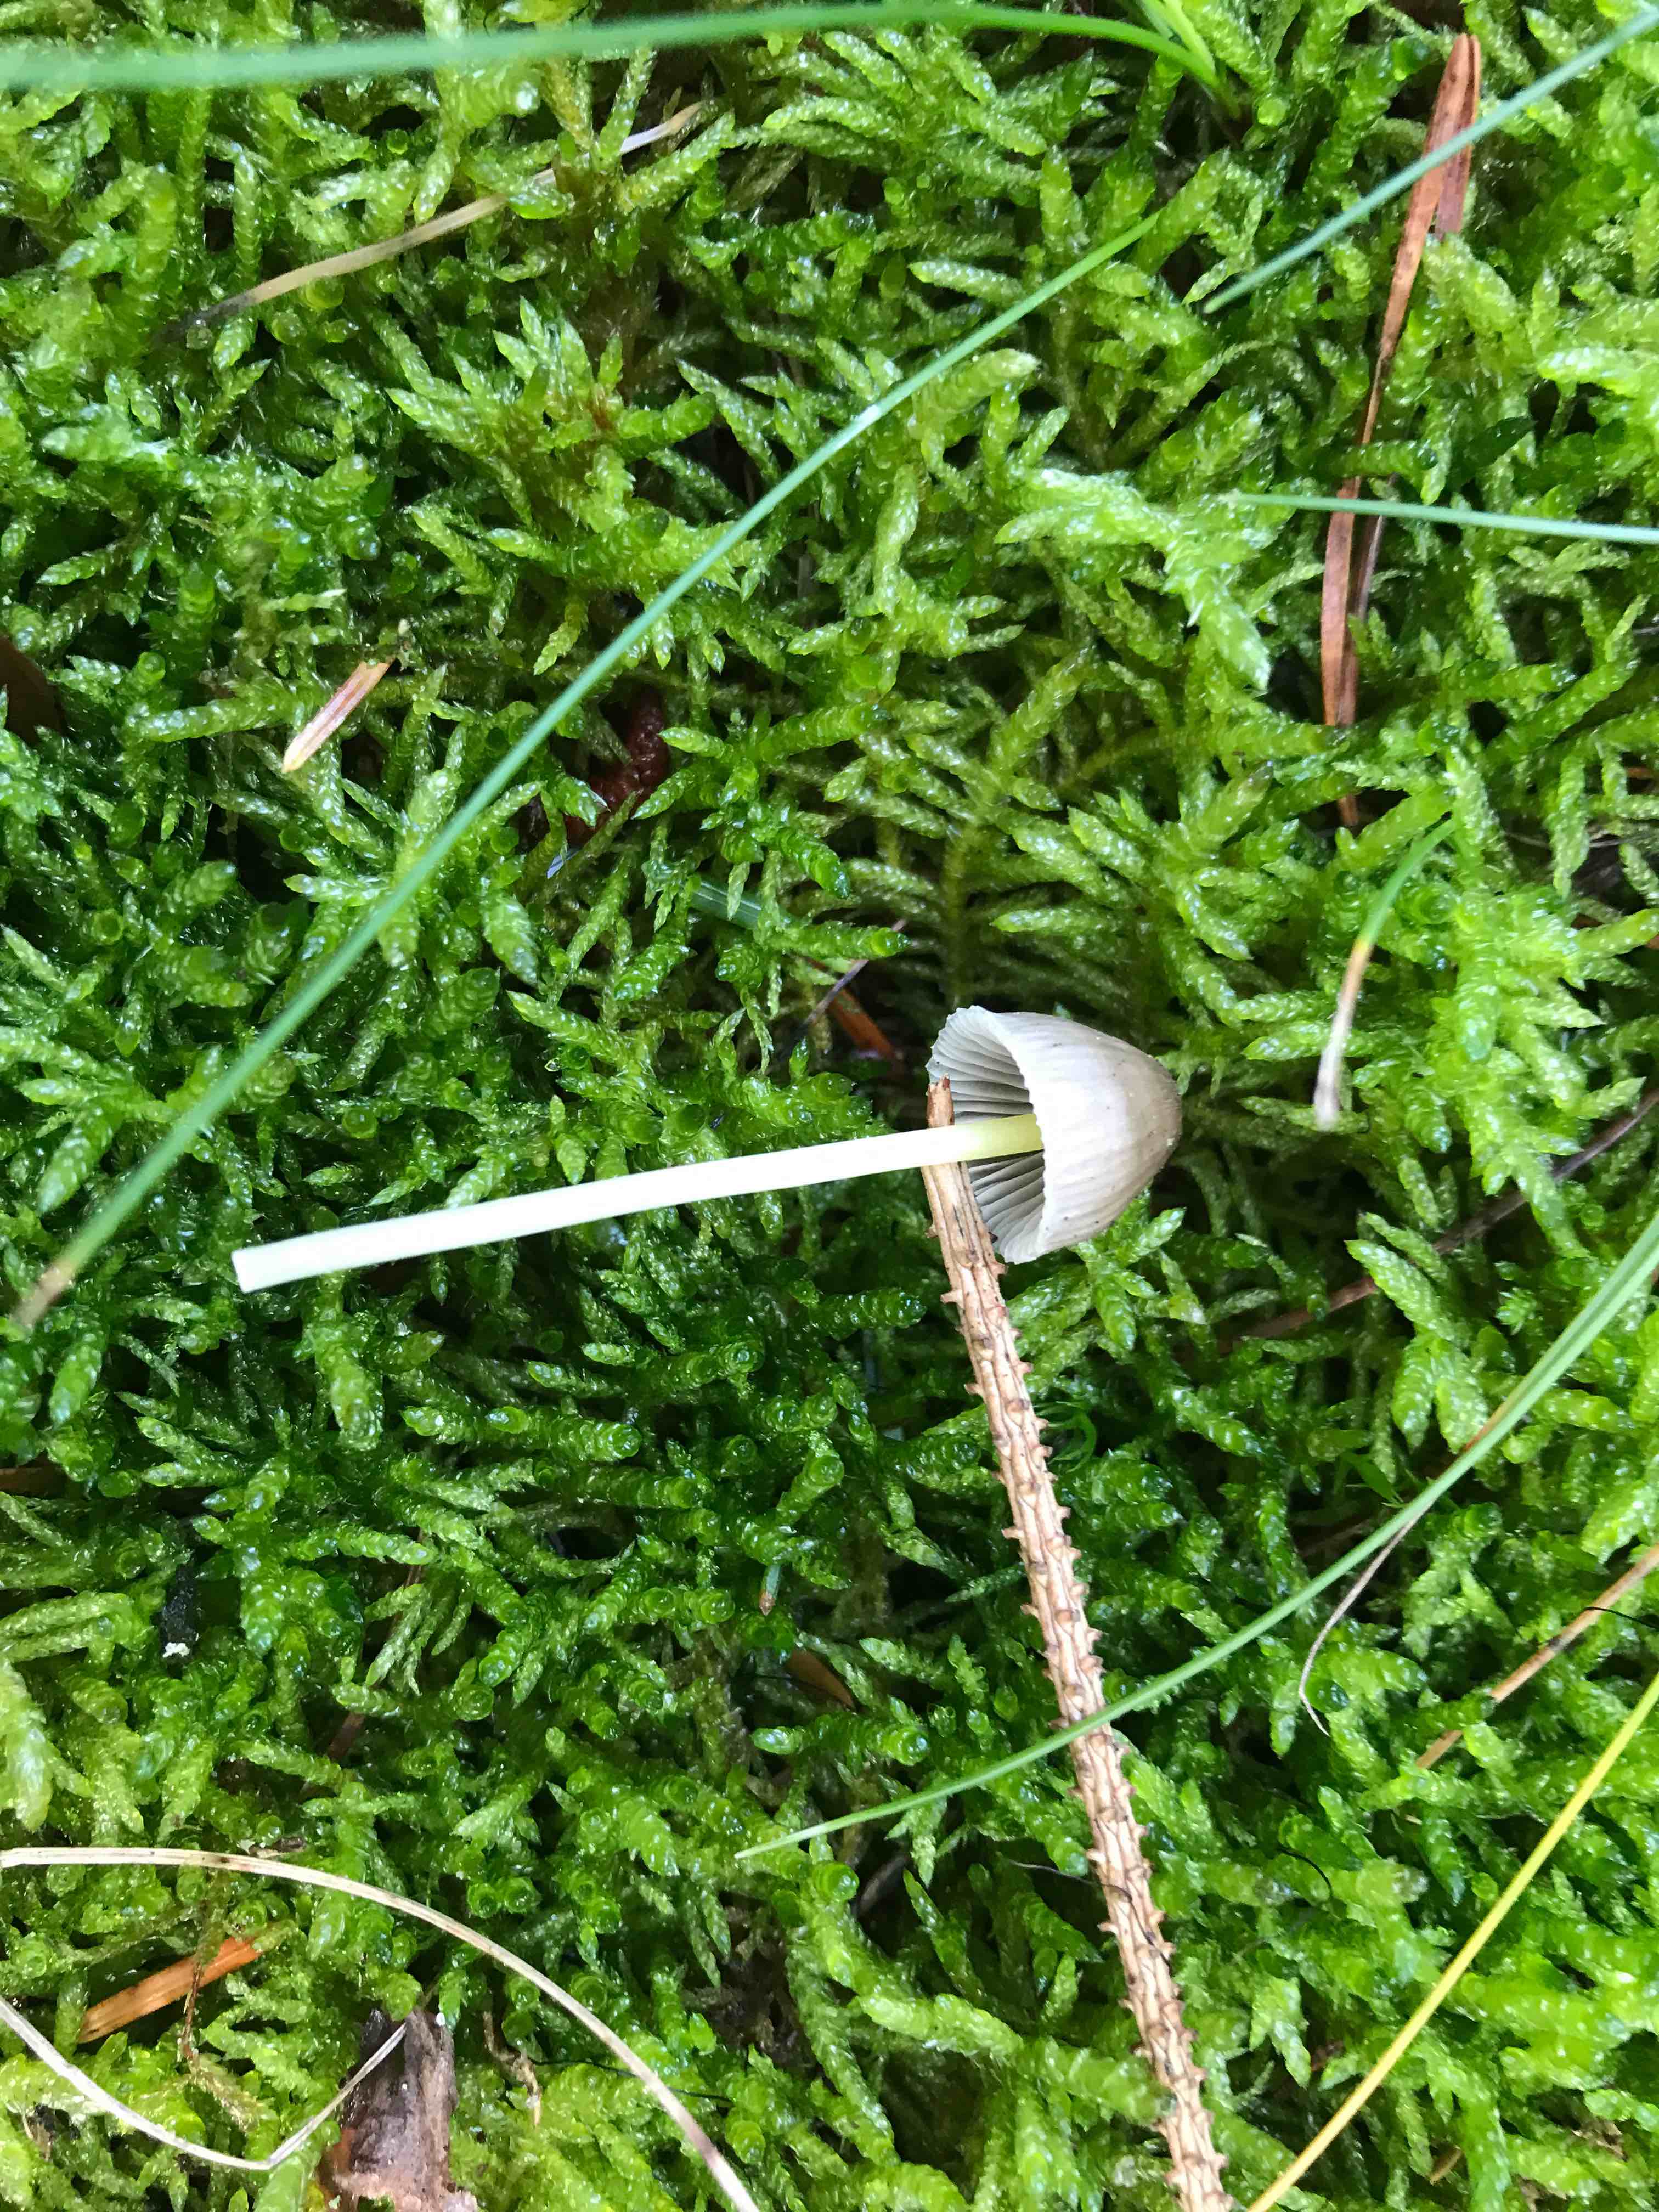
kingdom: Fungi
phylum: Basidiomycota
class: Agaricomycetes
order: Agaricales
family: Mycenaceae
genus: Mycena
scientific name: Mycena epipterygia
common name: gulstokket huesvamp
